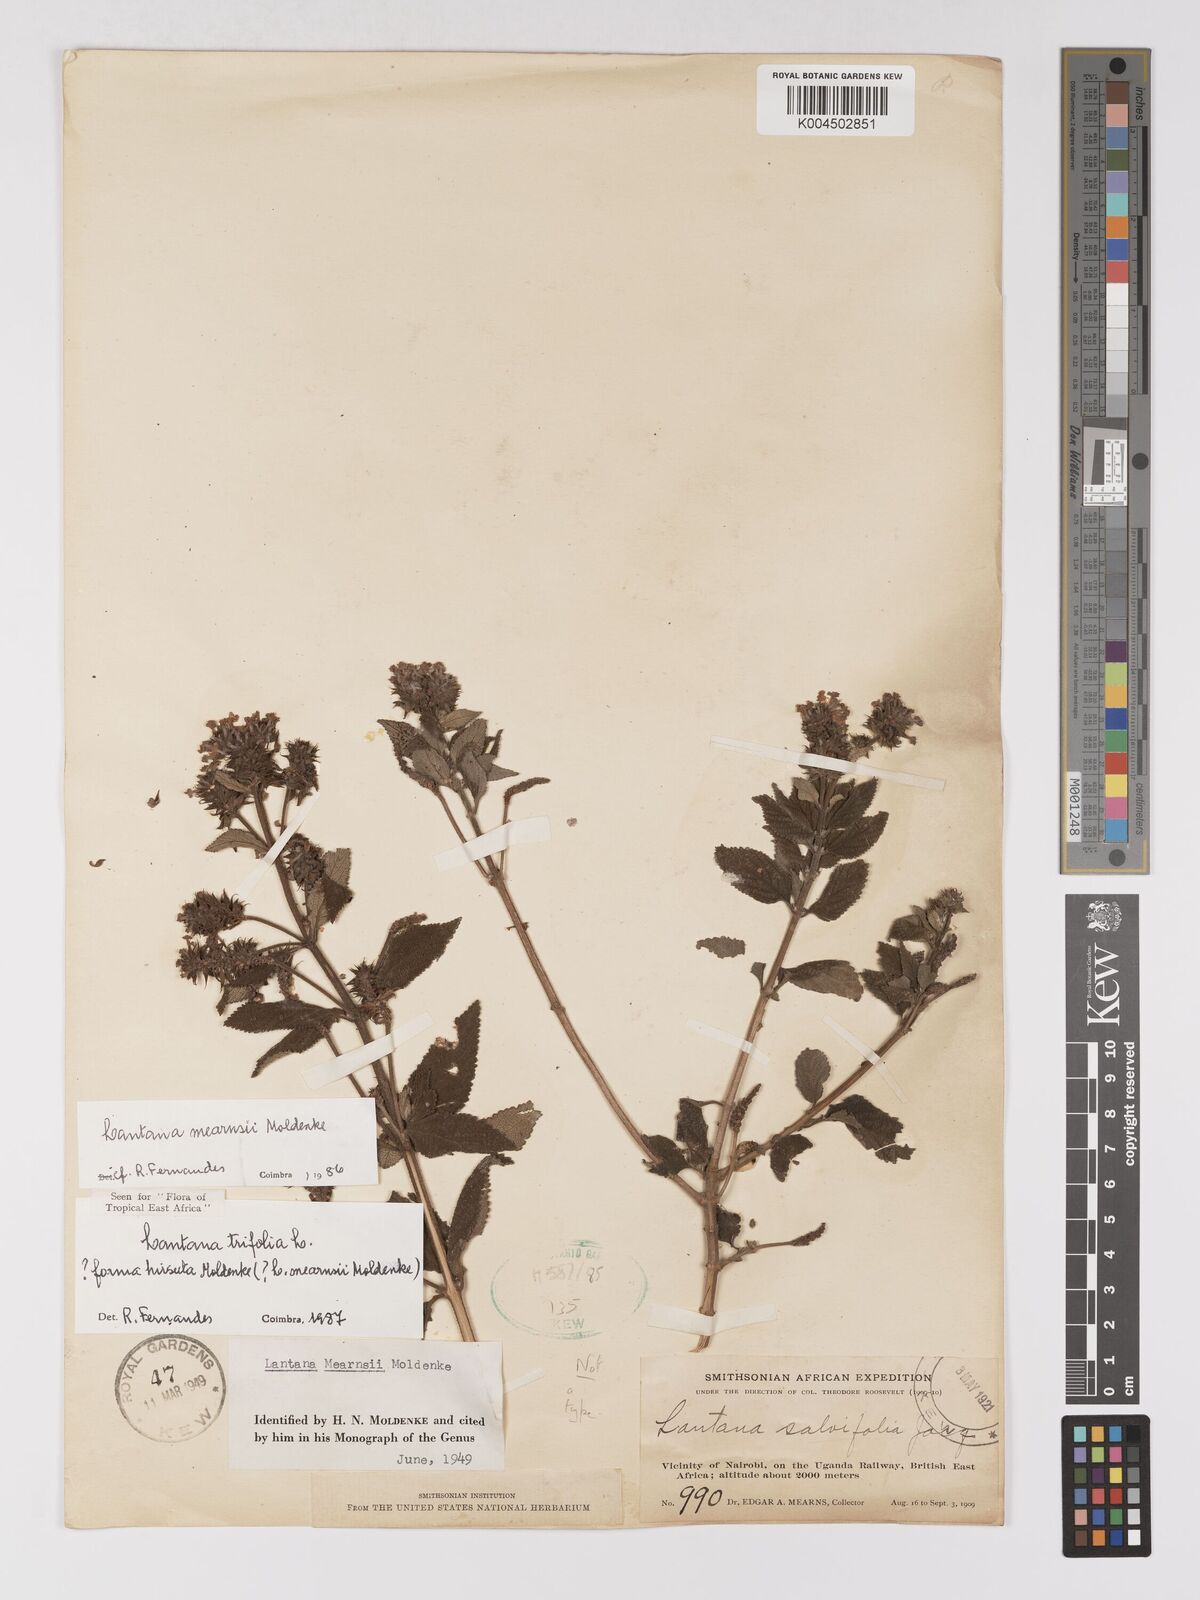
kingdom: Plantae
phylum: Tracheophyta
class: Magnoliopsida
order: Lamiales
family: Verbenaceae
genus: Lantana
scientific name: Lantana trifolia
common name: Sweet-sage
